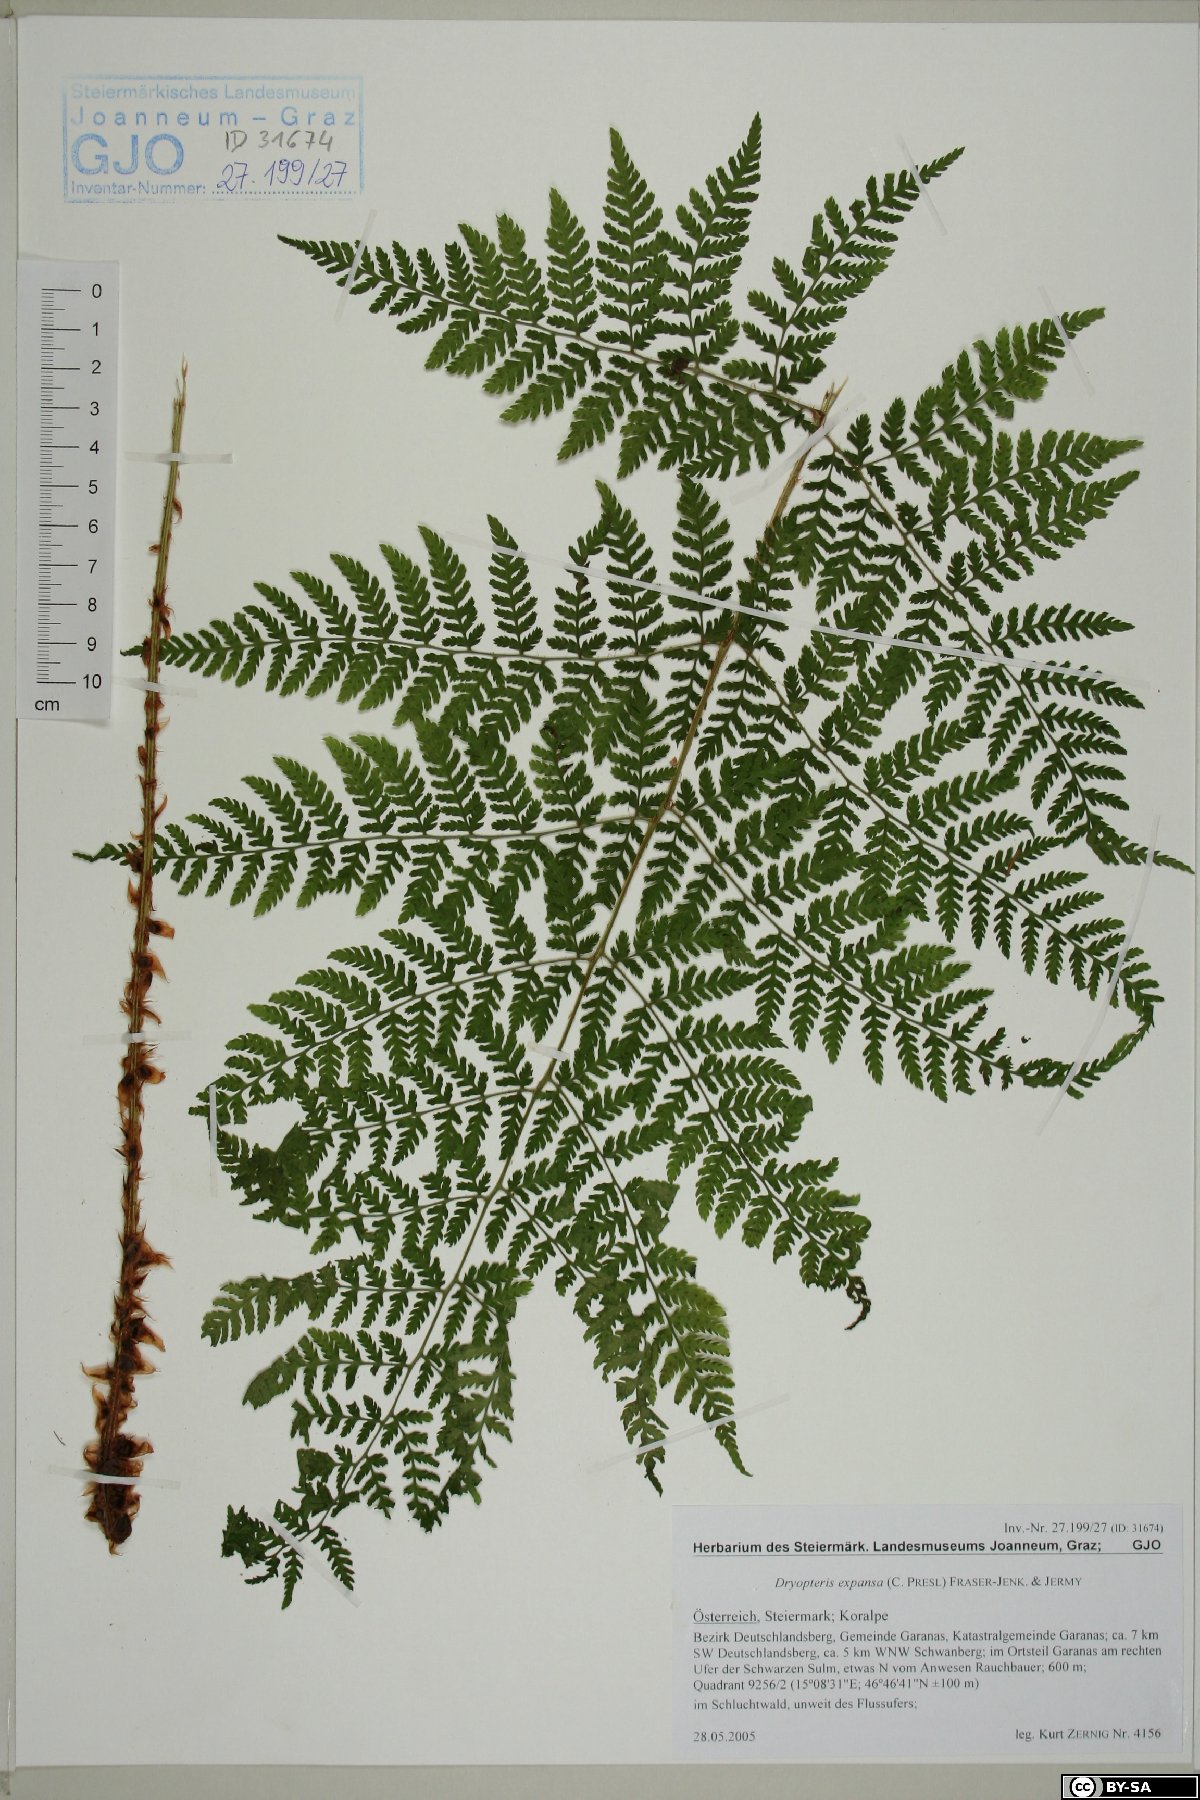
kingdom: Plantae
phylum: Tracheophyta
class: Polypodiopsida
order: Polypodiales
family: Dryopteridaceae
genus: Dryopteris
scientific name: Dryopteris expansa
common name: Northern buckler fern
